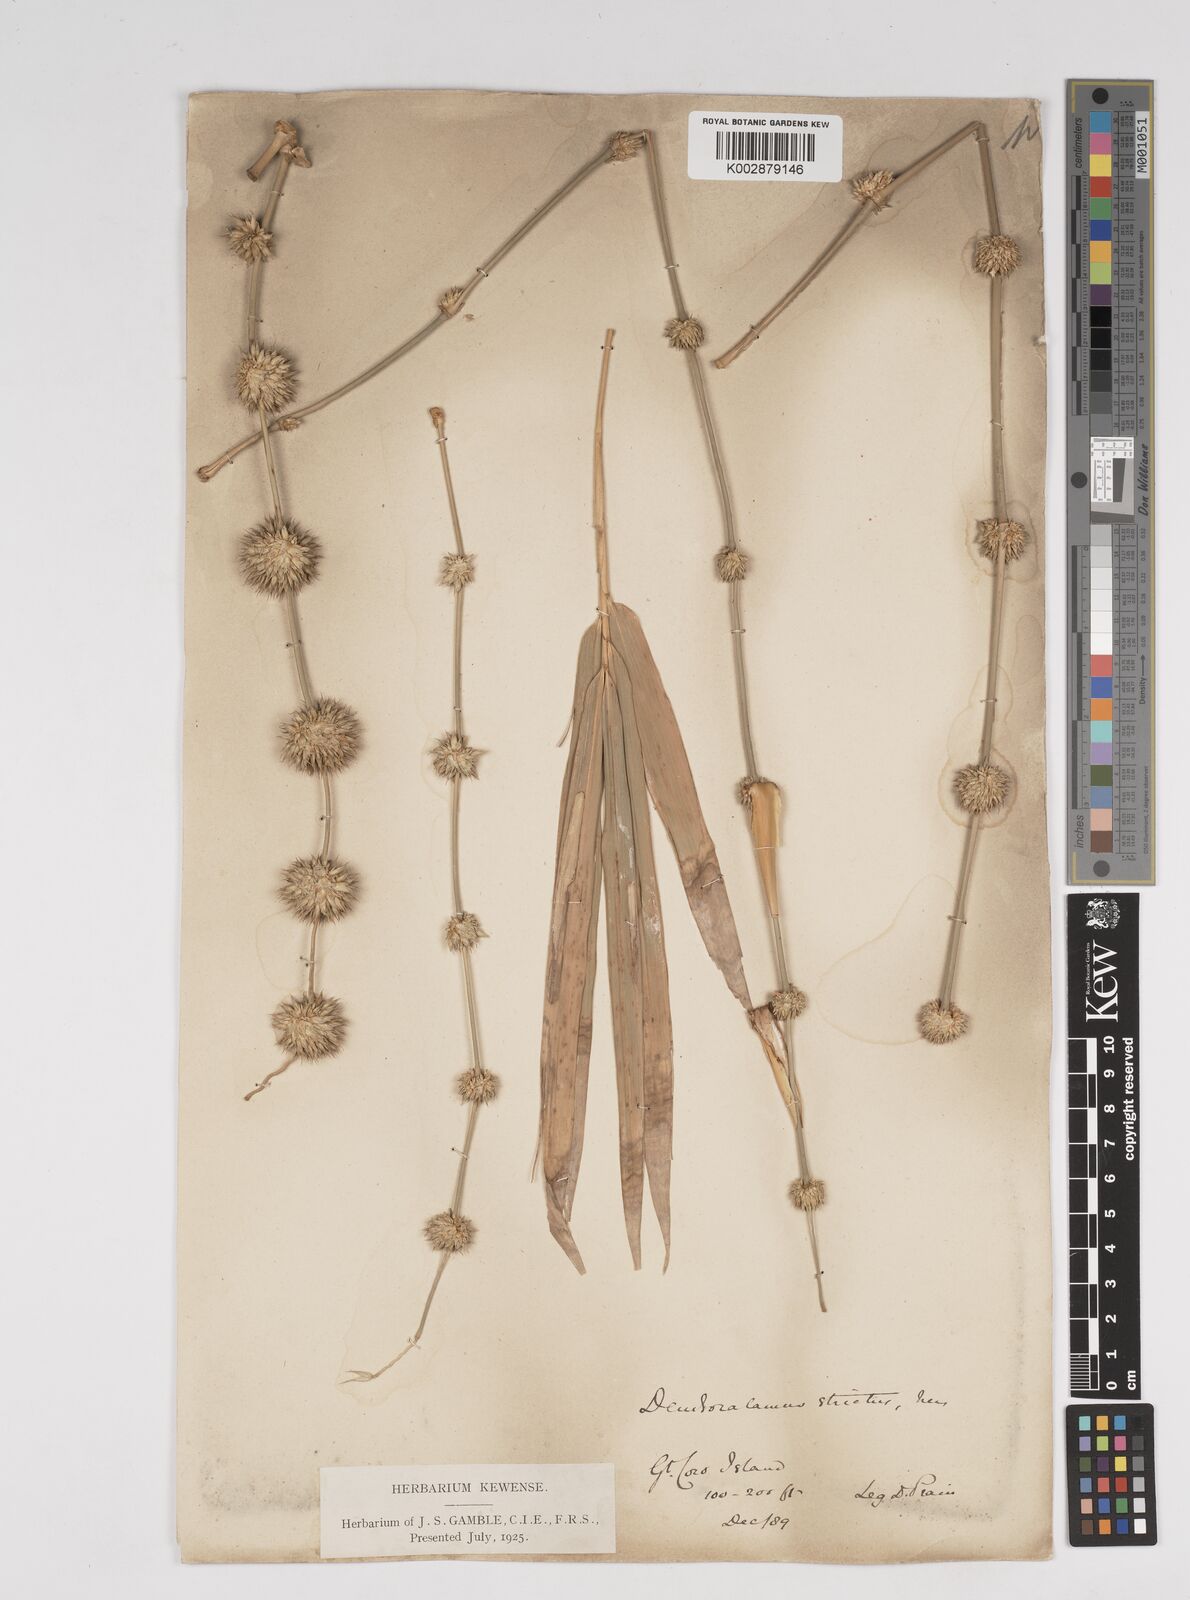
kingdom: Plantae
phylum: Tracheophyta
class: Liliopsida
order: Poales
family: Poaceae
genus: Dendrocalamus
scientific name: Dendrocalamus strictus
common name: Male bamboo
